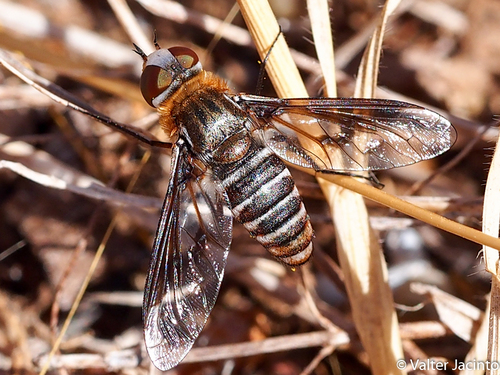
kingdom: Animalia
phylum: Arthropoda
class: Insecta
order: Diptera
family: Bombyliidae
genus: Heteralonia
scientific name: Heteralonia
